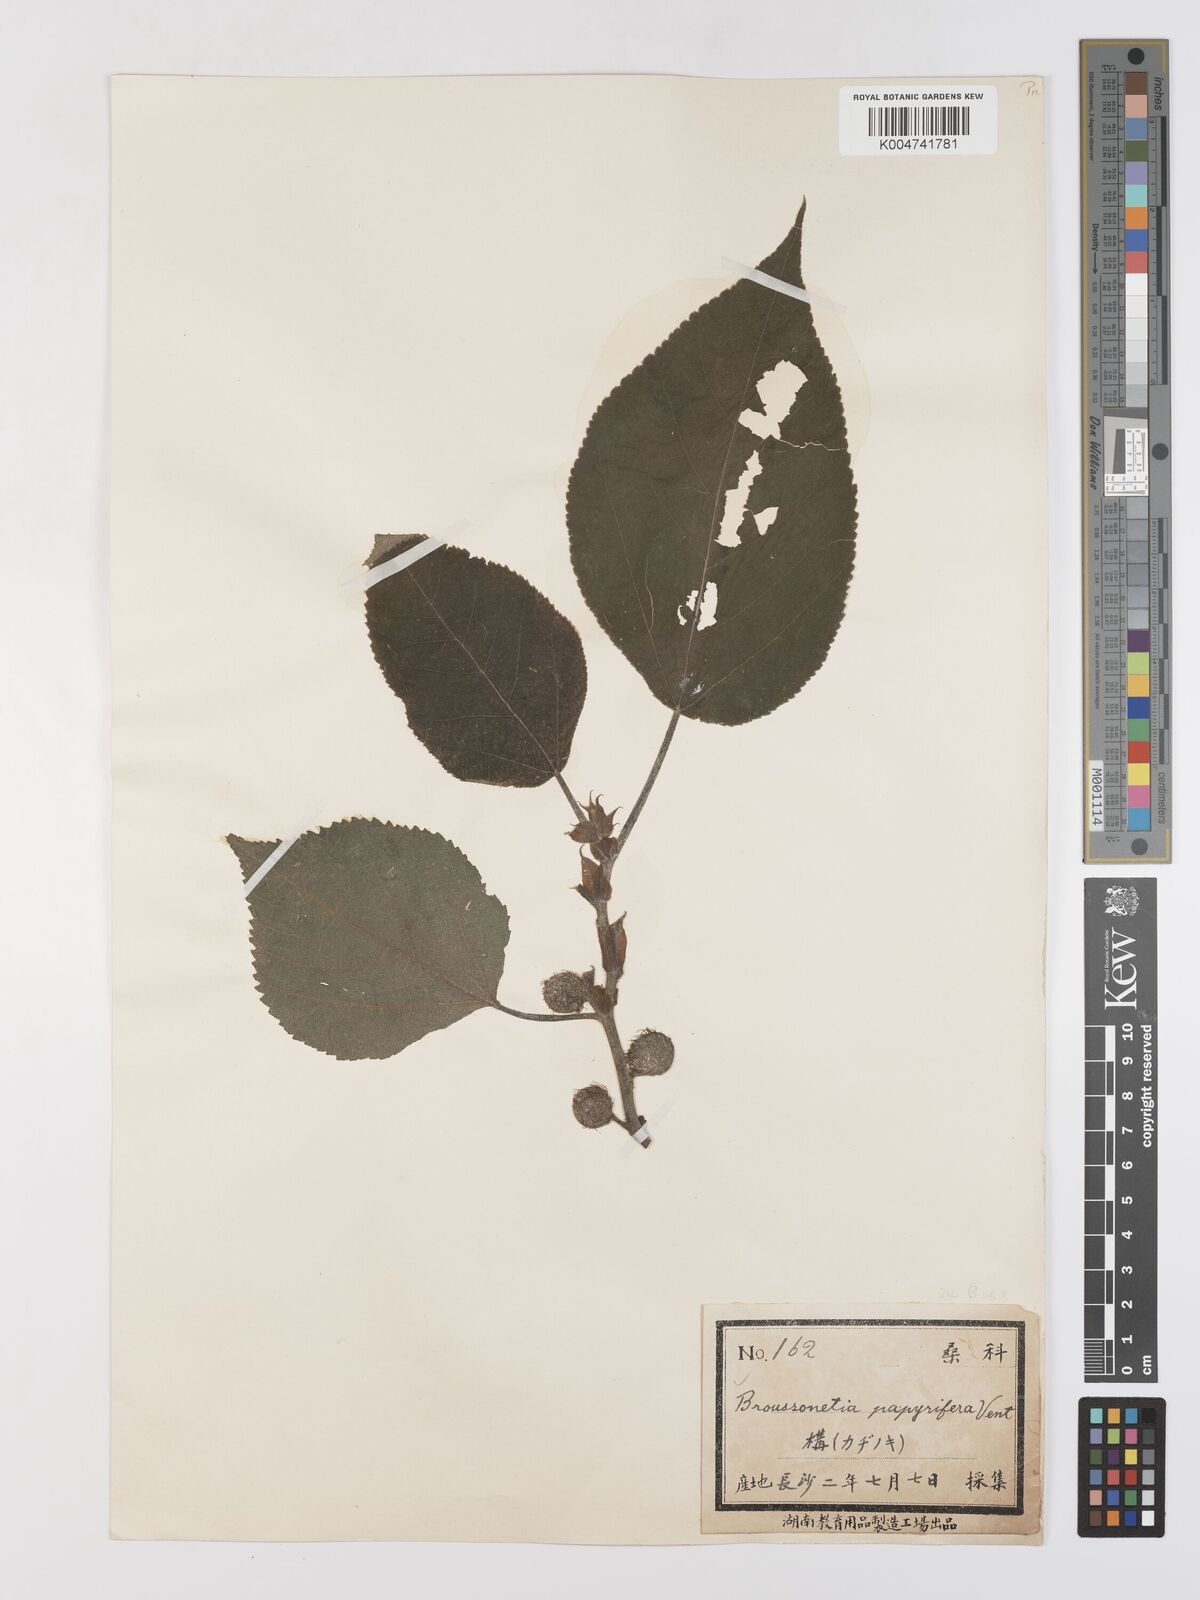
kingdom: Plantae
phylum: Tracheophyta
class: Magnoliopsida
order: Rosales
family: Moraceae
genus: Broussonetia
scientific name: Broussonetia papyrifera
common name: Paper mulberry
